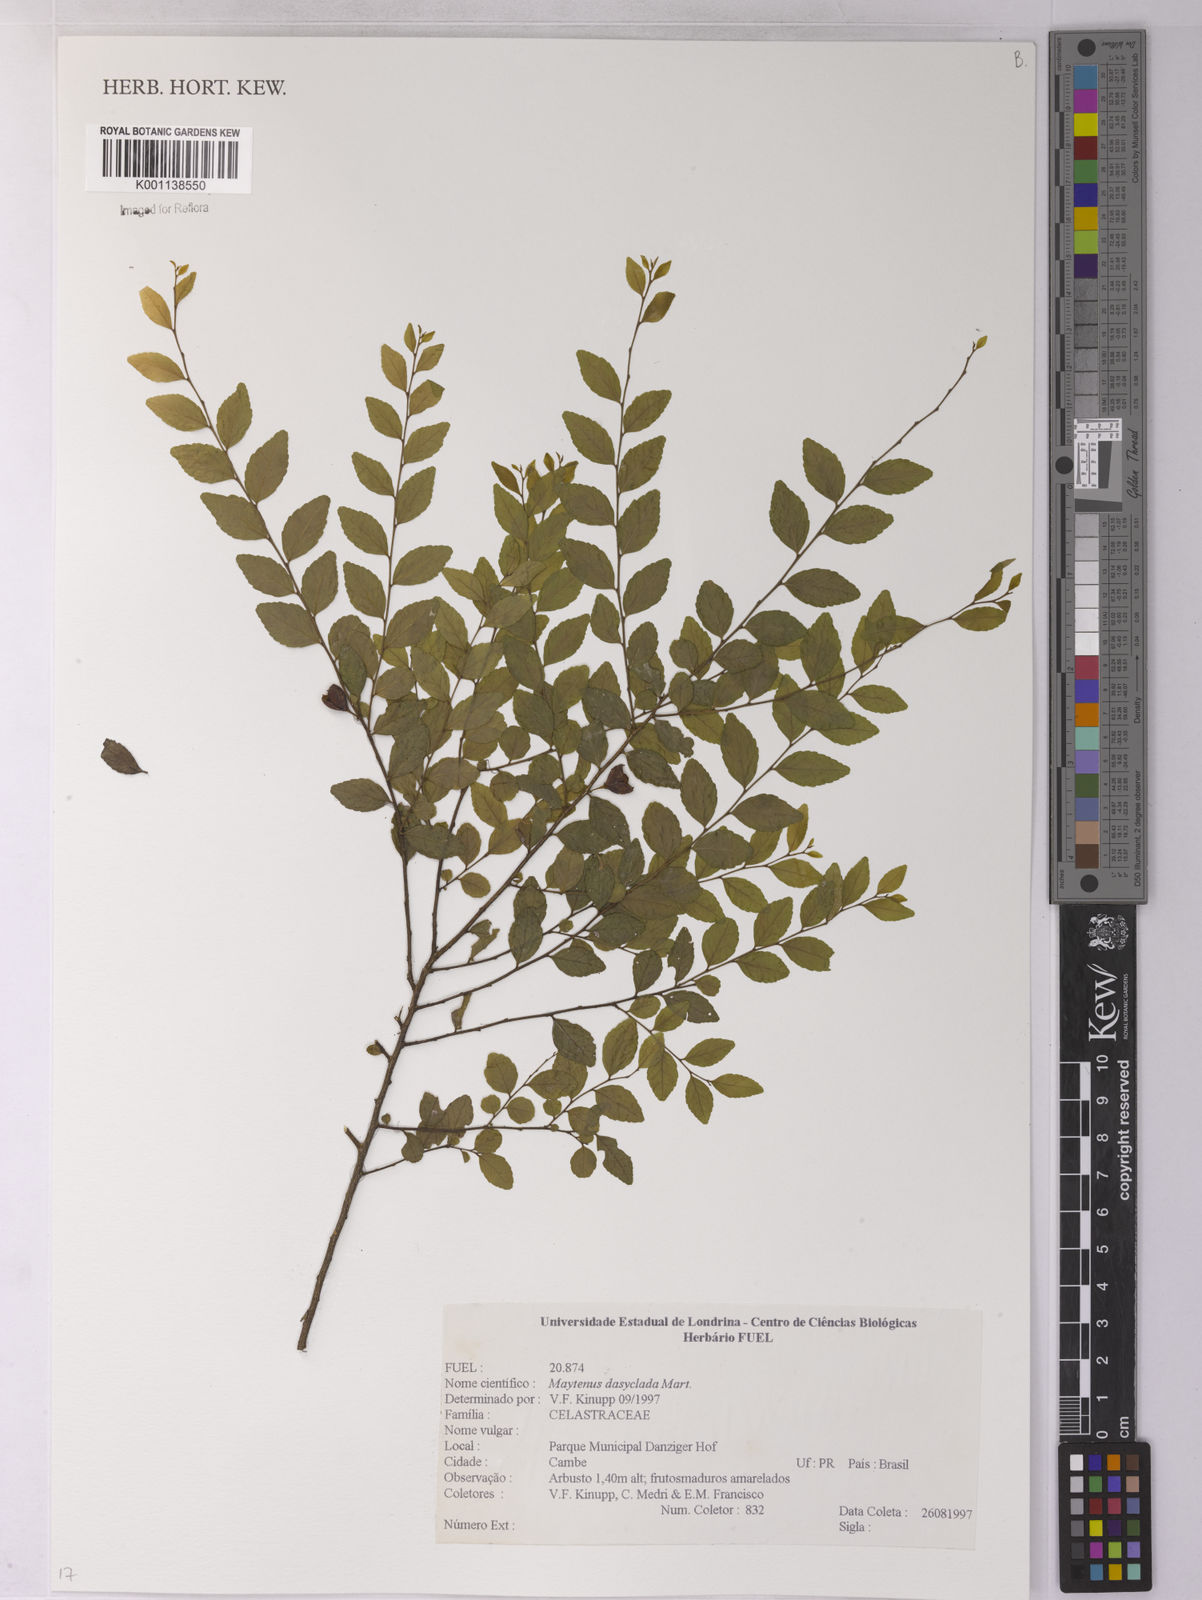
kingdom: Plantae
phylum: Tracheophyta
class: Magnoliopsida
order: Celastrales
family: Celastraceae
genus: Monteverdia
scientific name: Monteverdia dasyclados
